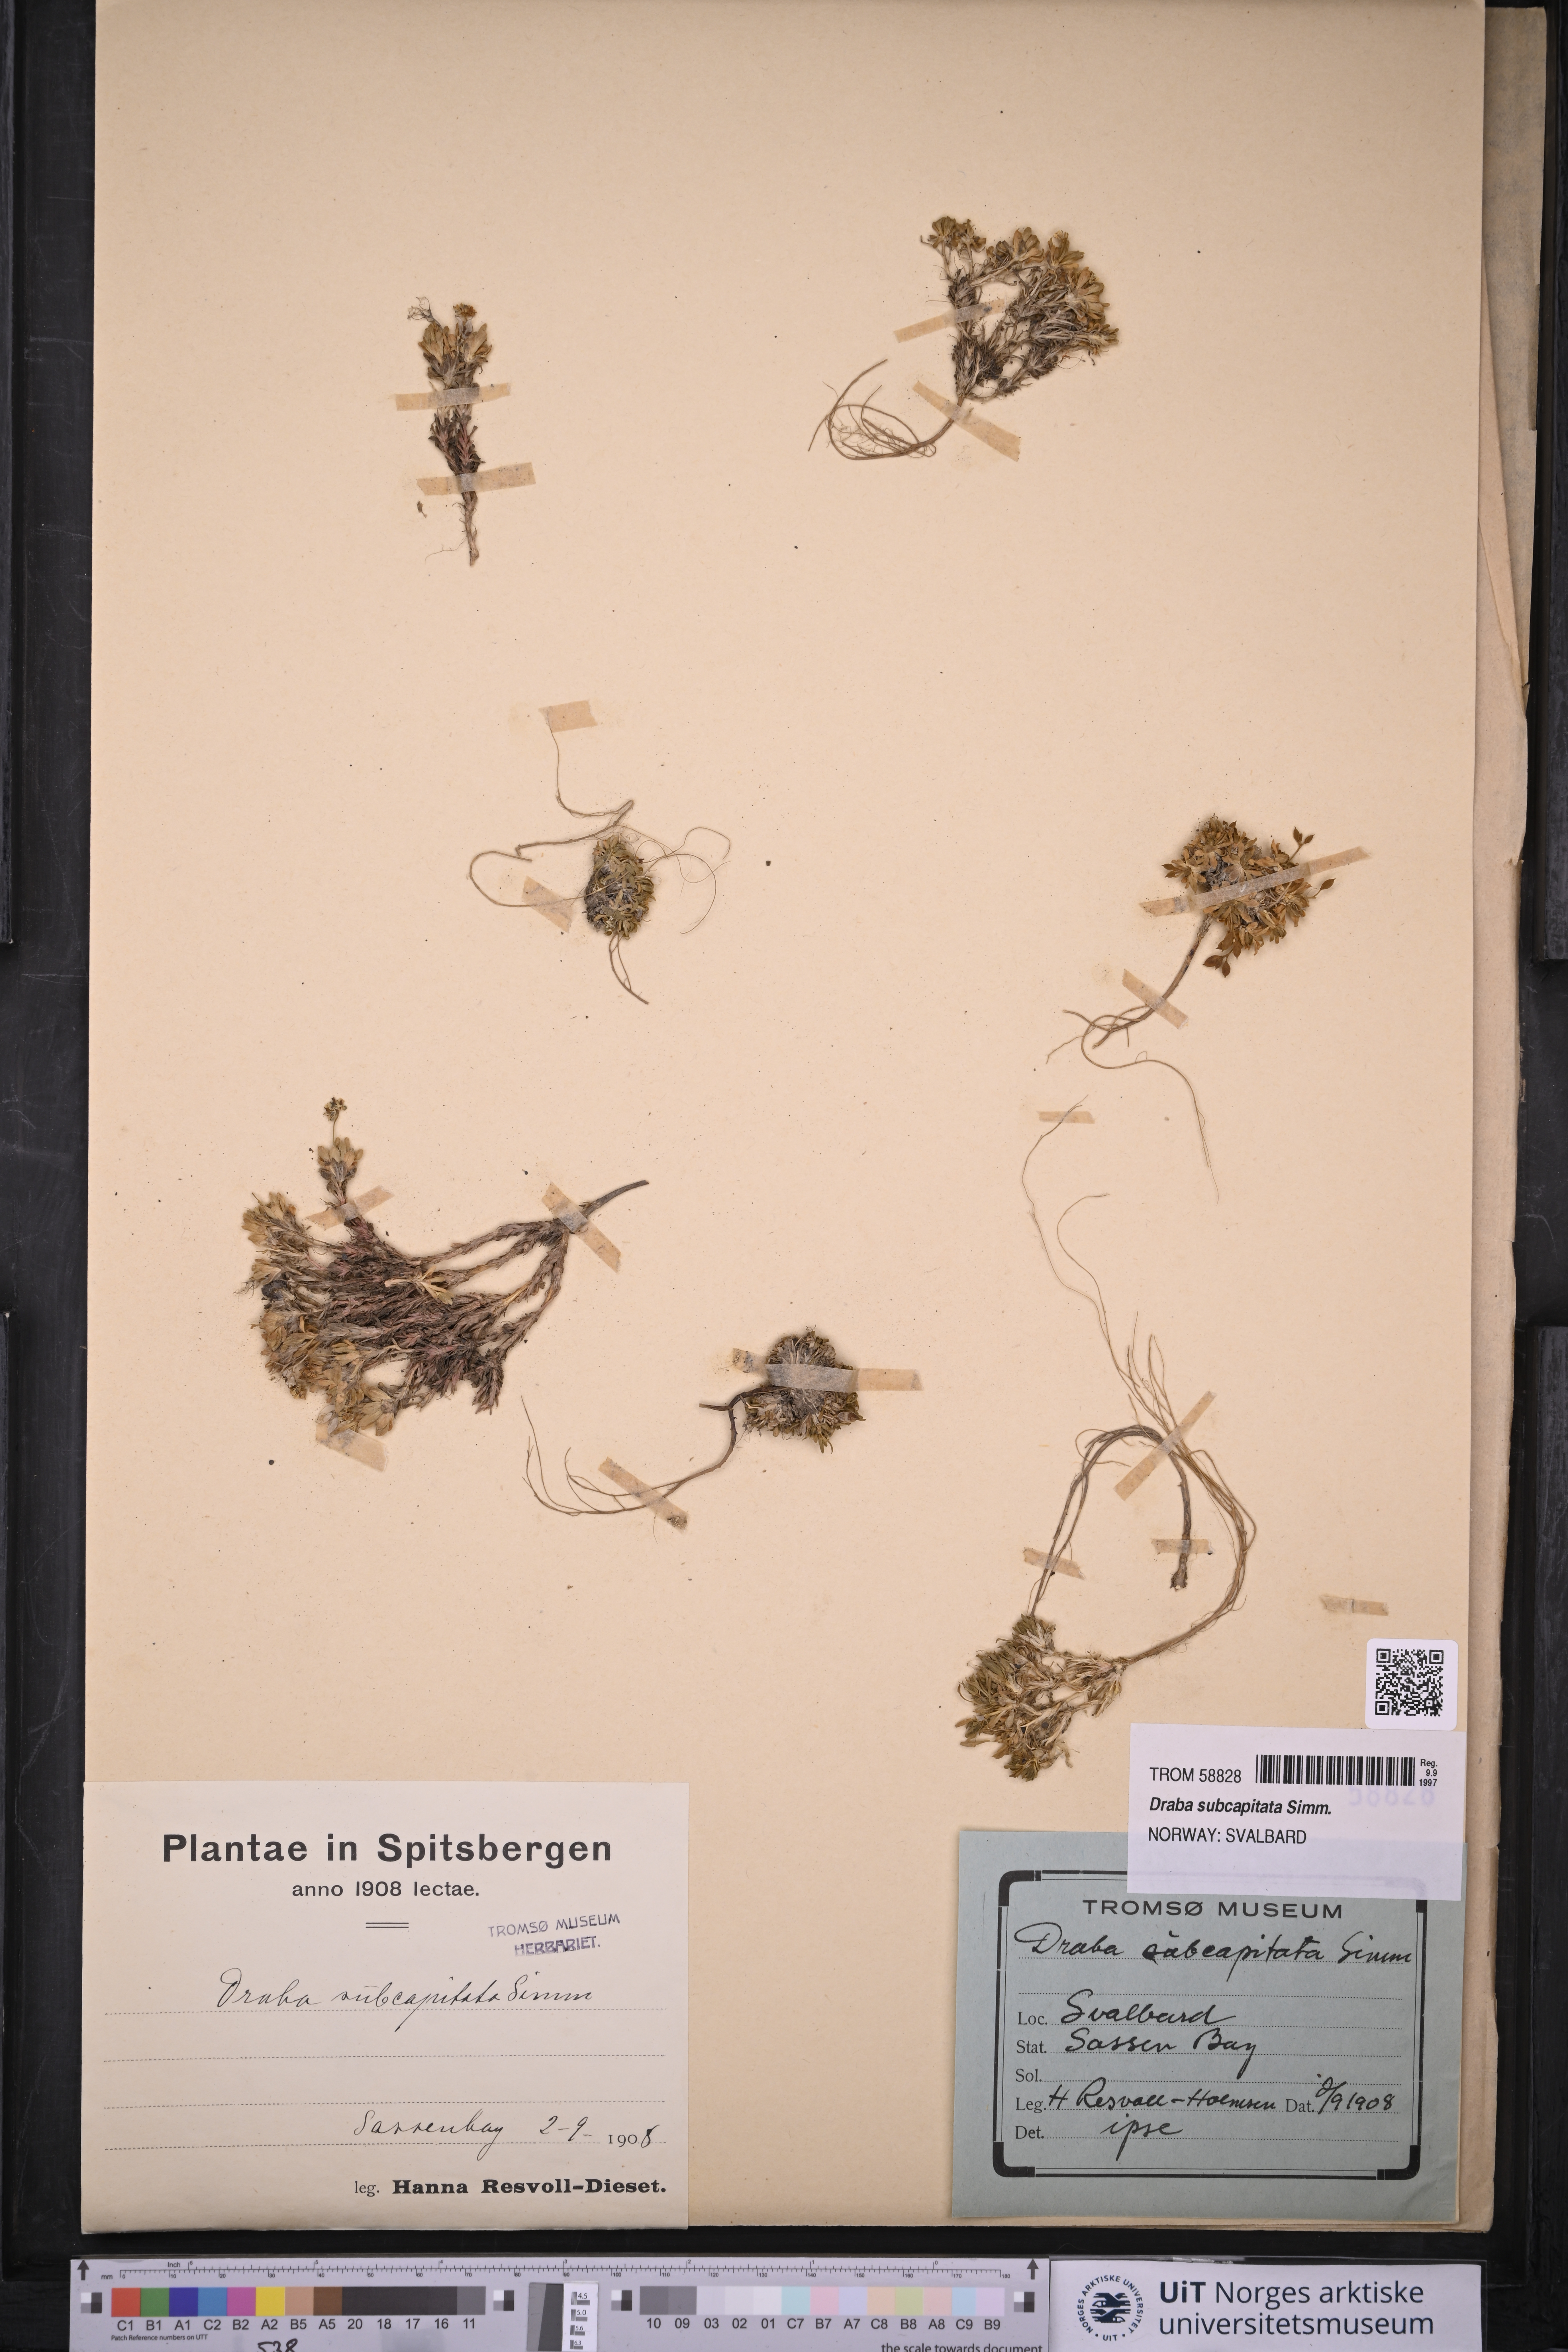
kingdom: Plantae
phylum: Tracheophyta
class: Magnoliopsida
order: Brassicales
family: Brassicaceae
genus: Draba
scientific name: Draba subcapitata
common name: Ellesmere island draba
